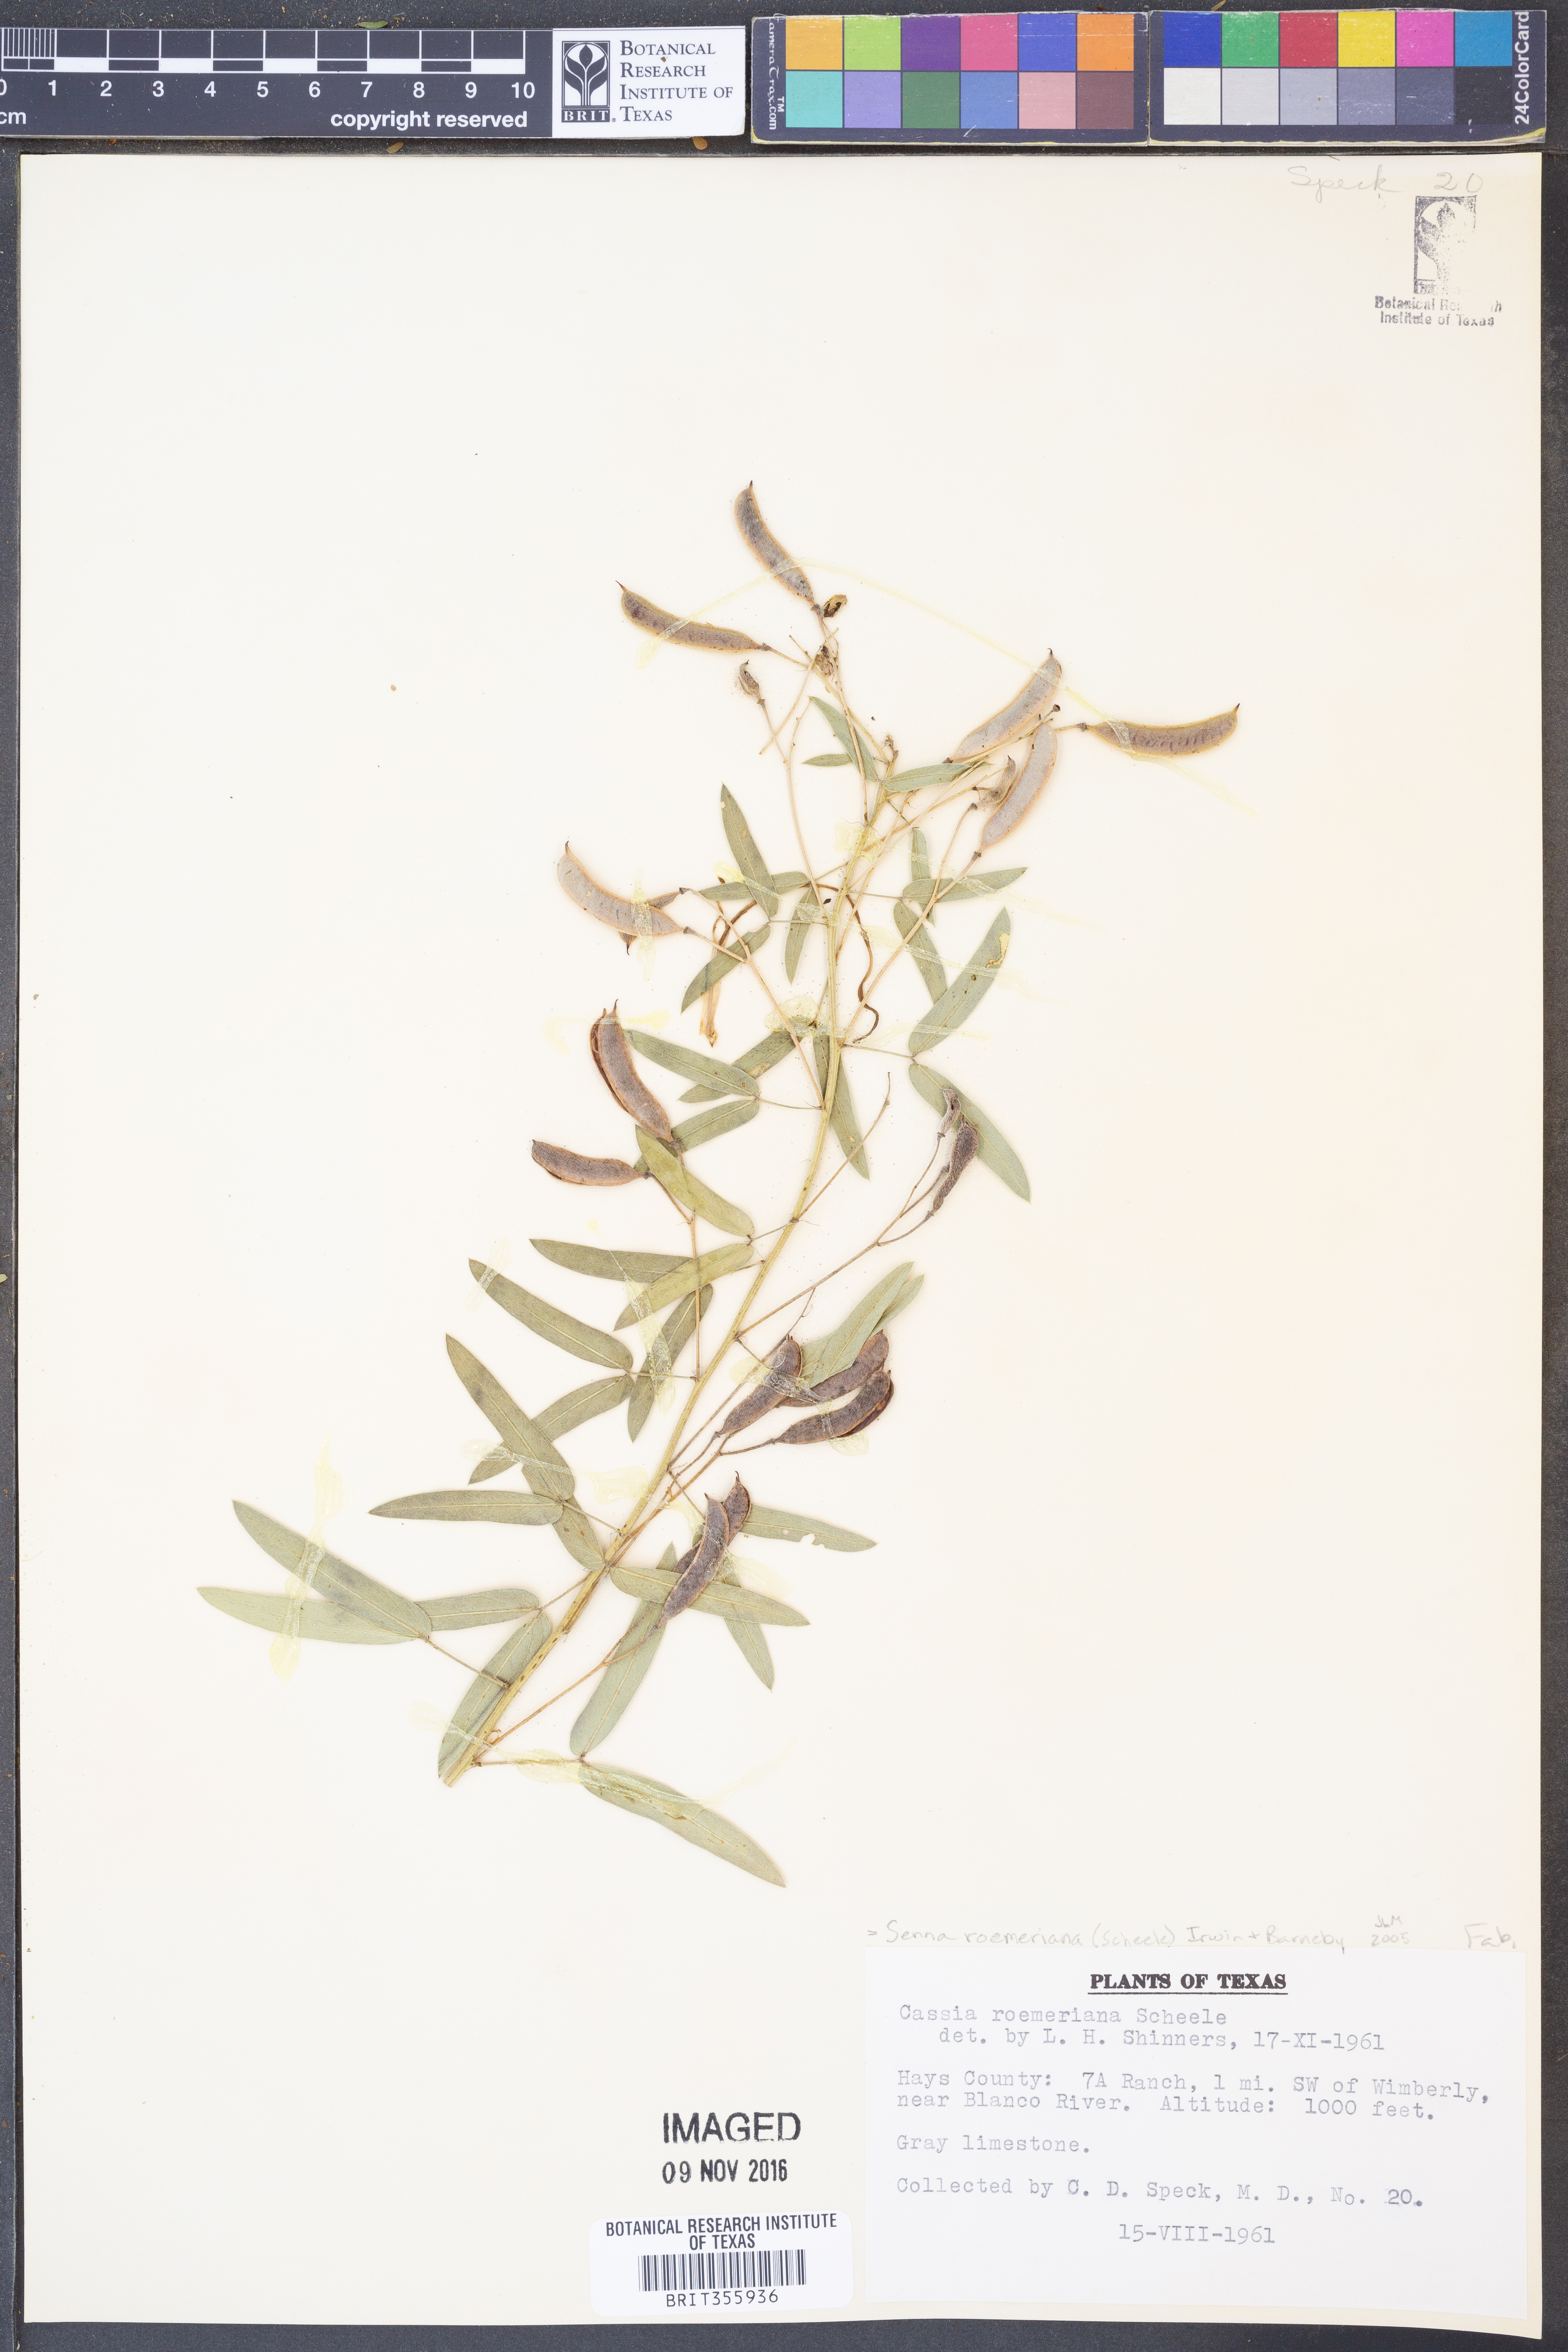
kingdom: Plantae
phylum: Tracheophyta
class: Magnoliopsida
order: Fabales
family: Fabaceae
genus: Senna
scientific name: Senna roemeriana
